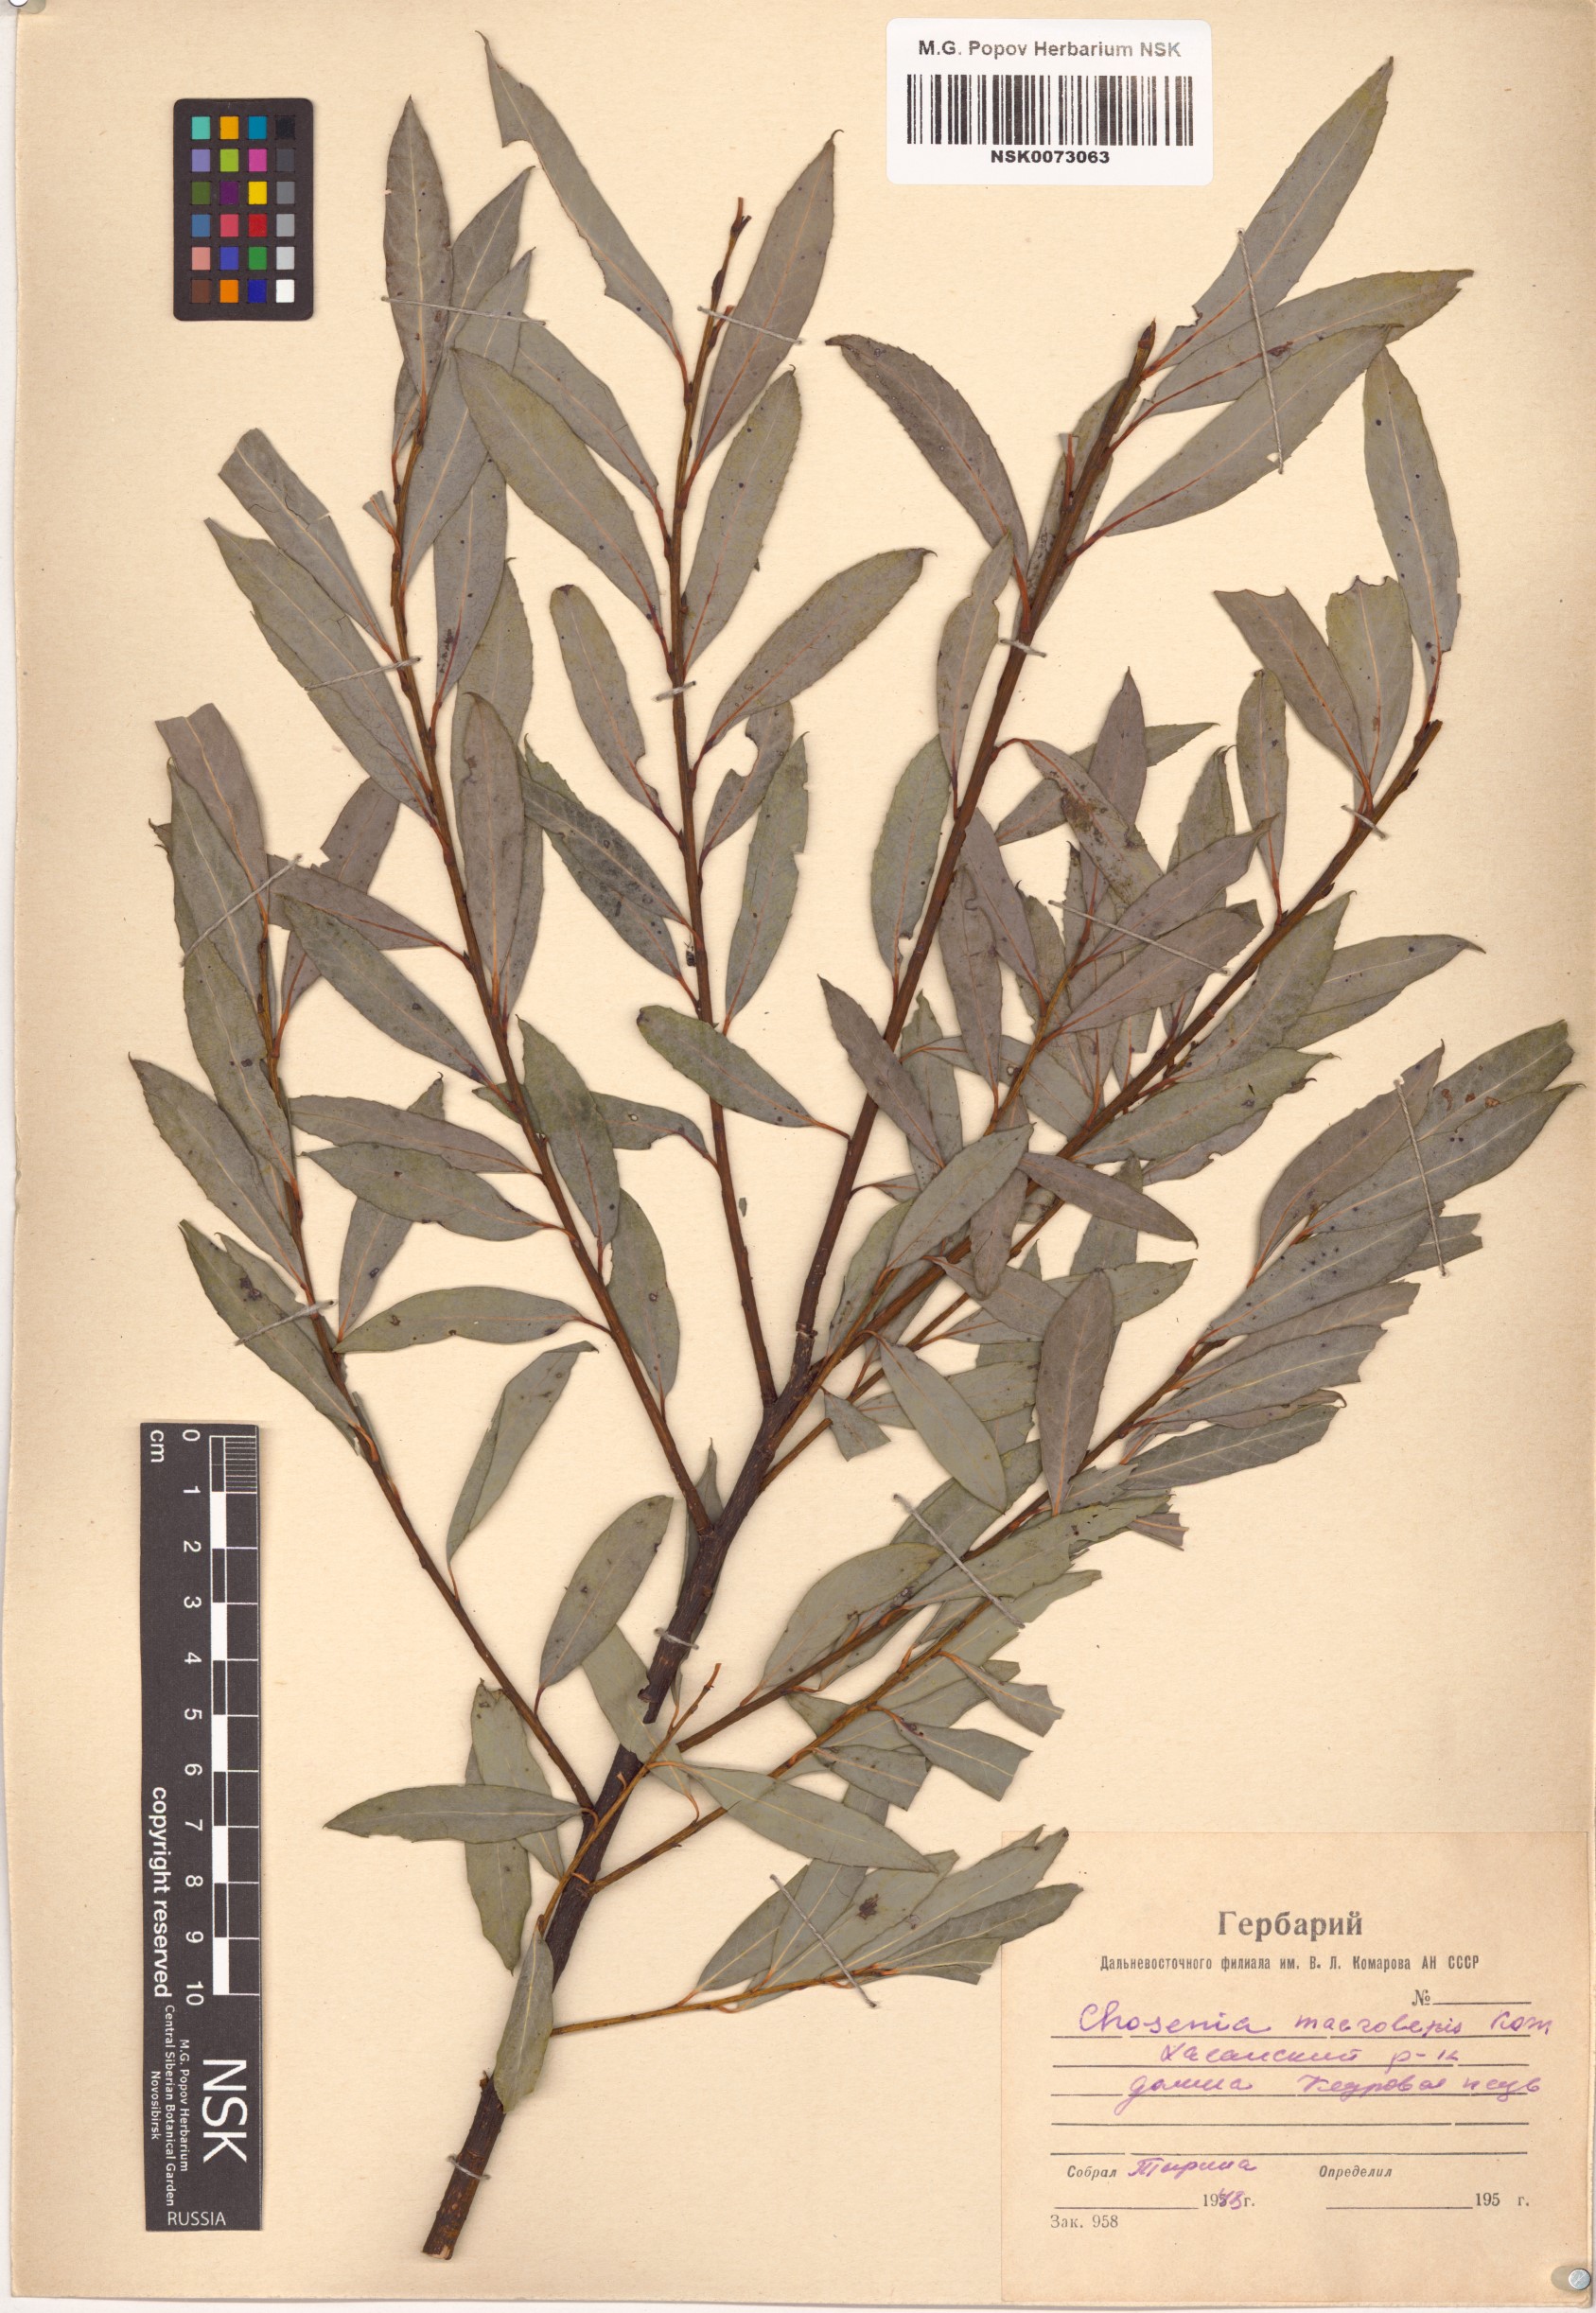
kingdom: Plantae
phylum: Tracheophyta
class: Magnoliopsida
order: Malpighiales
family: Salicaceae
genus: Chosenia
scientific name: Chosenia arbutifolia
